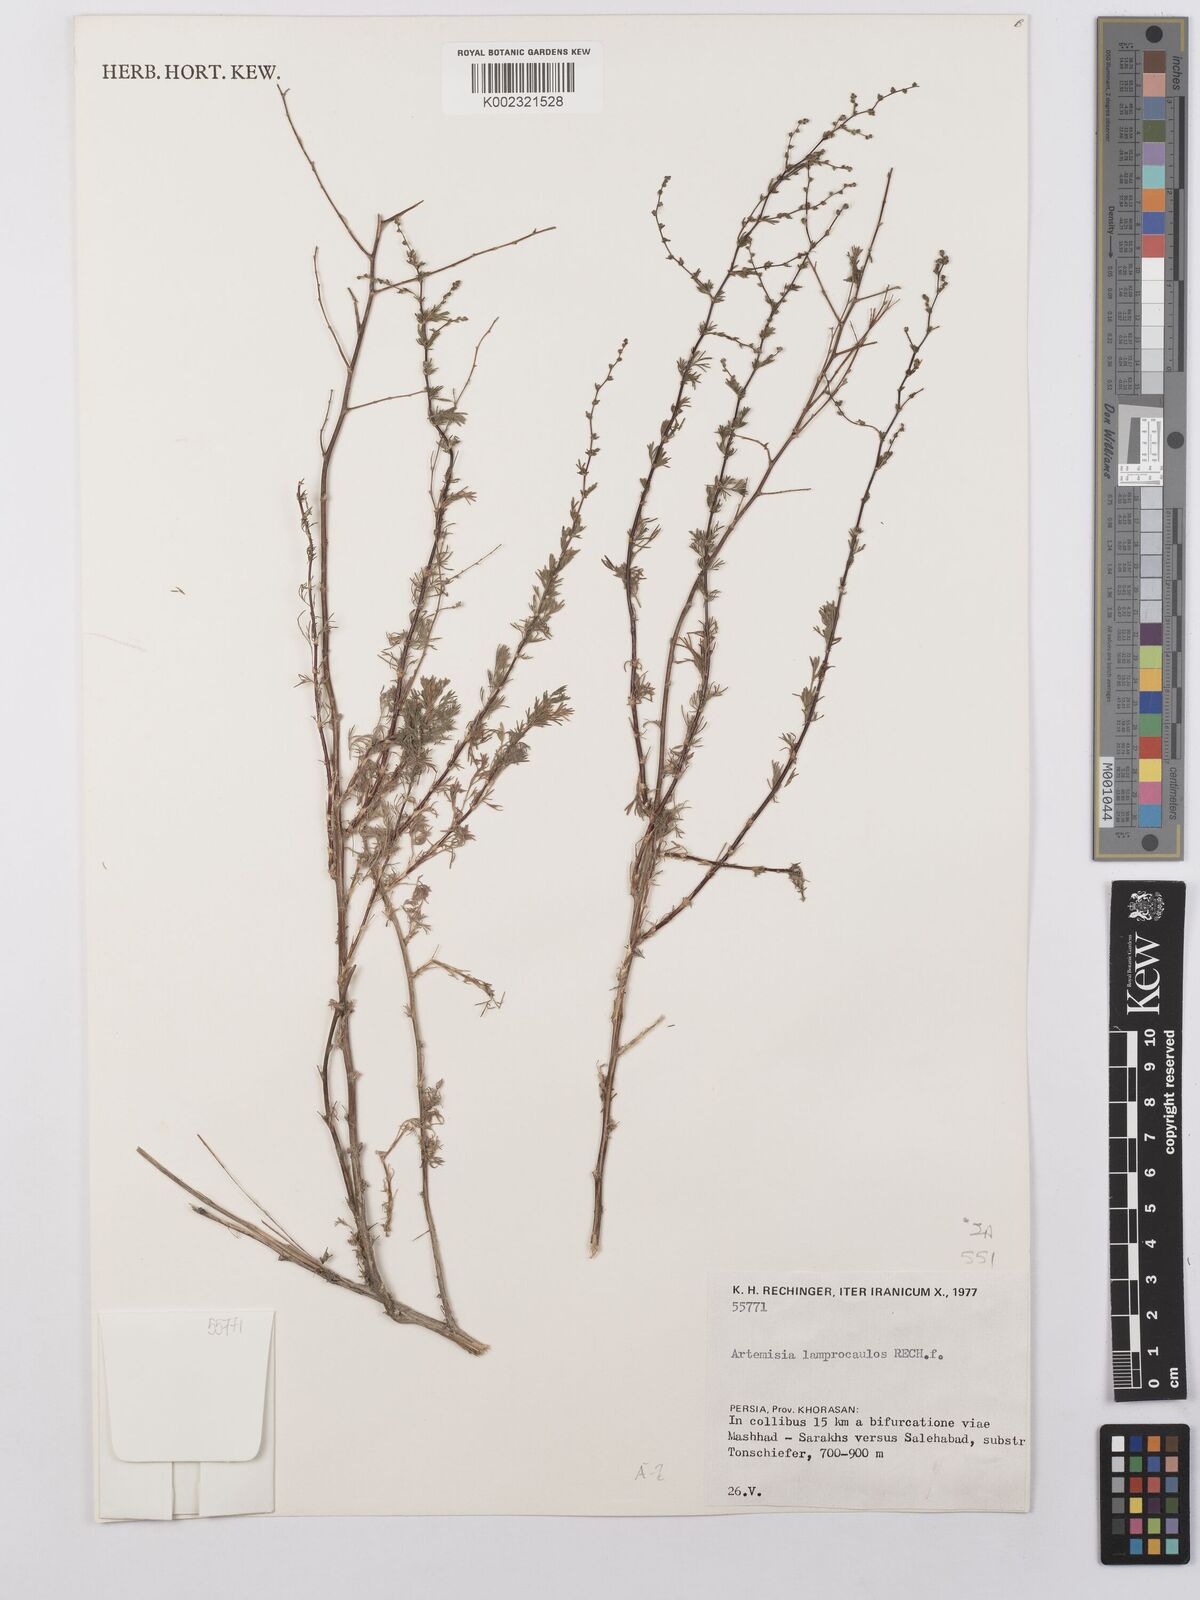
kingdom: Plantae
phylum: Tracheophyta
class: Magnoliopsida
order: Asterales
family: Asteraceae
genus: Artemisia
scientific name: Artemisia turanica
